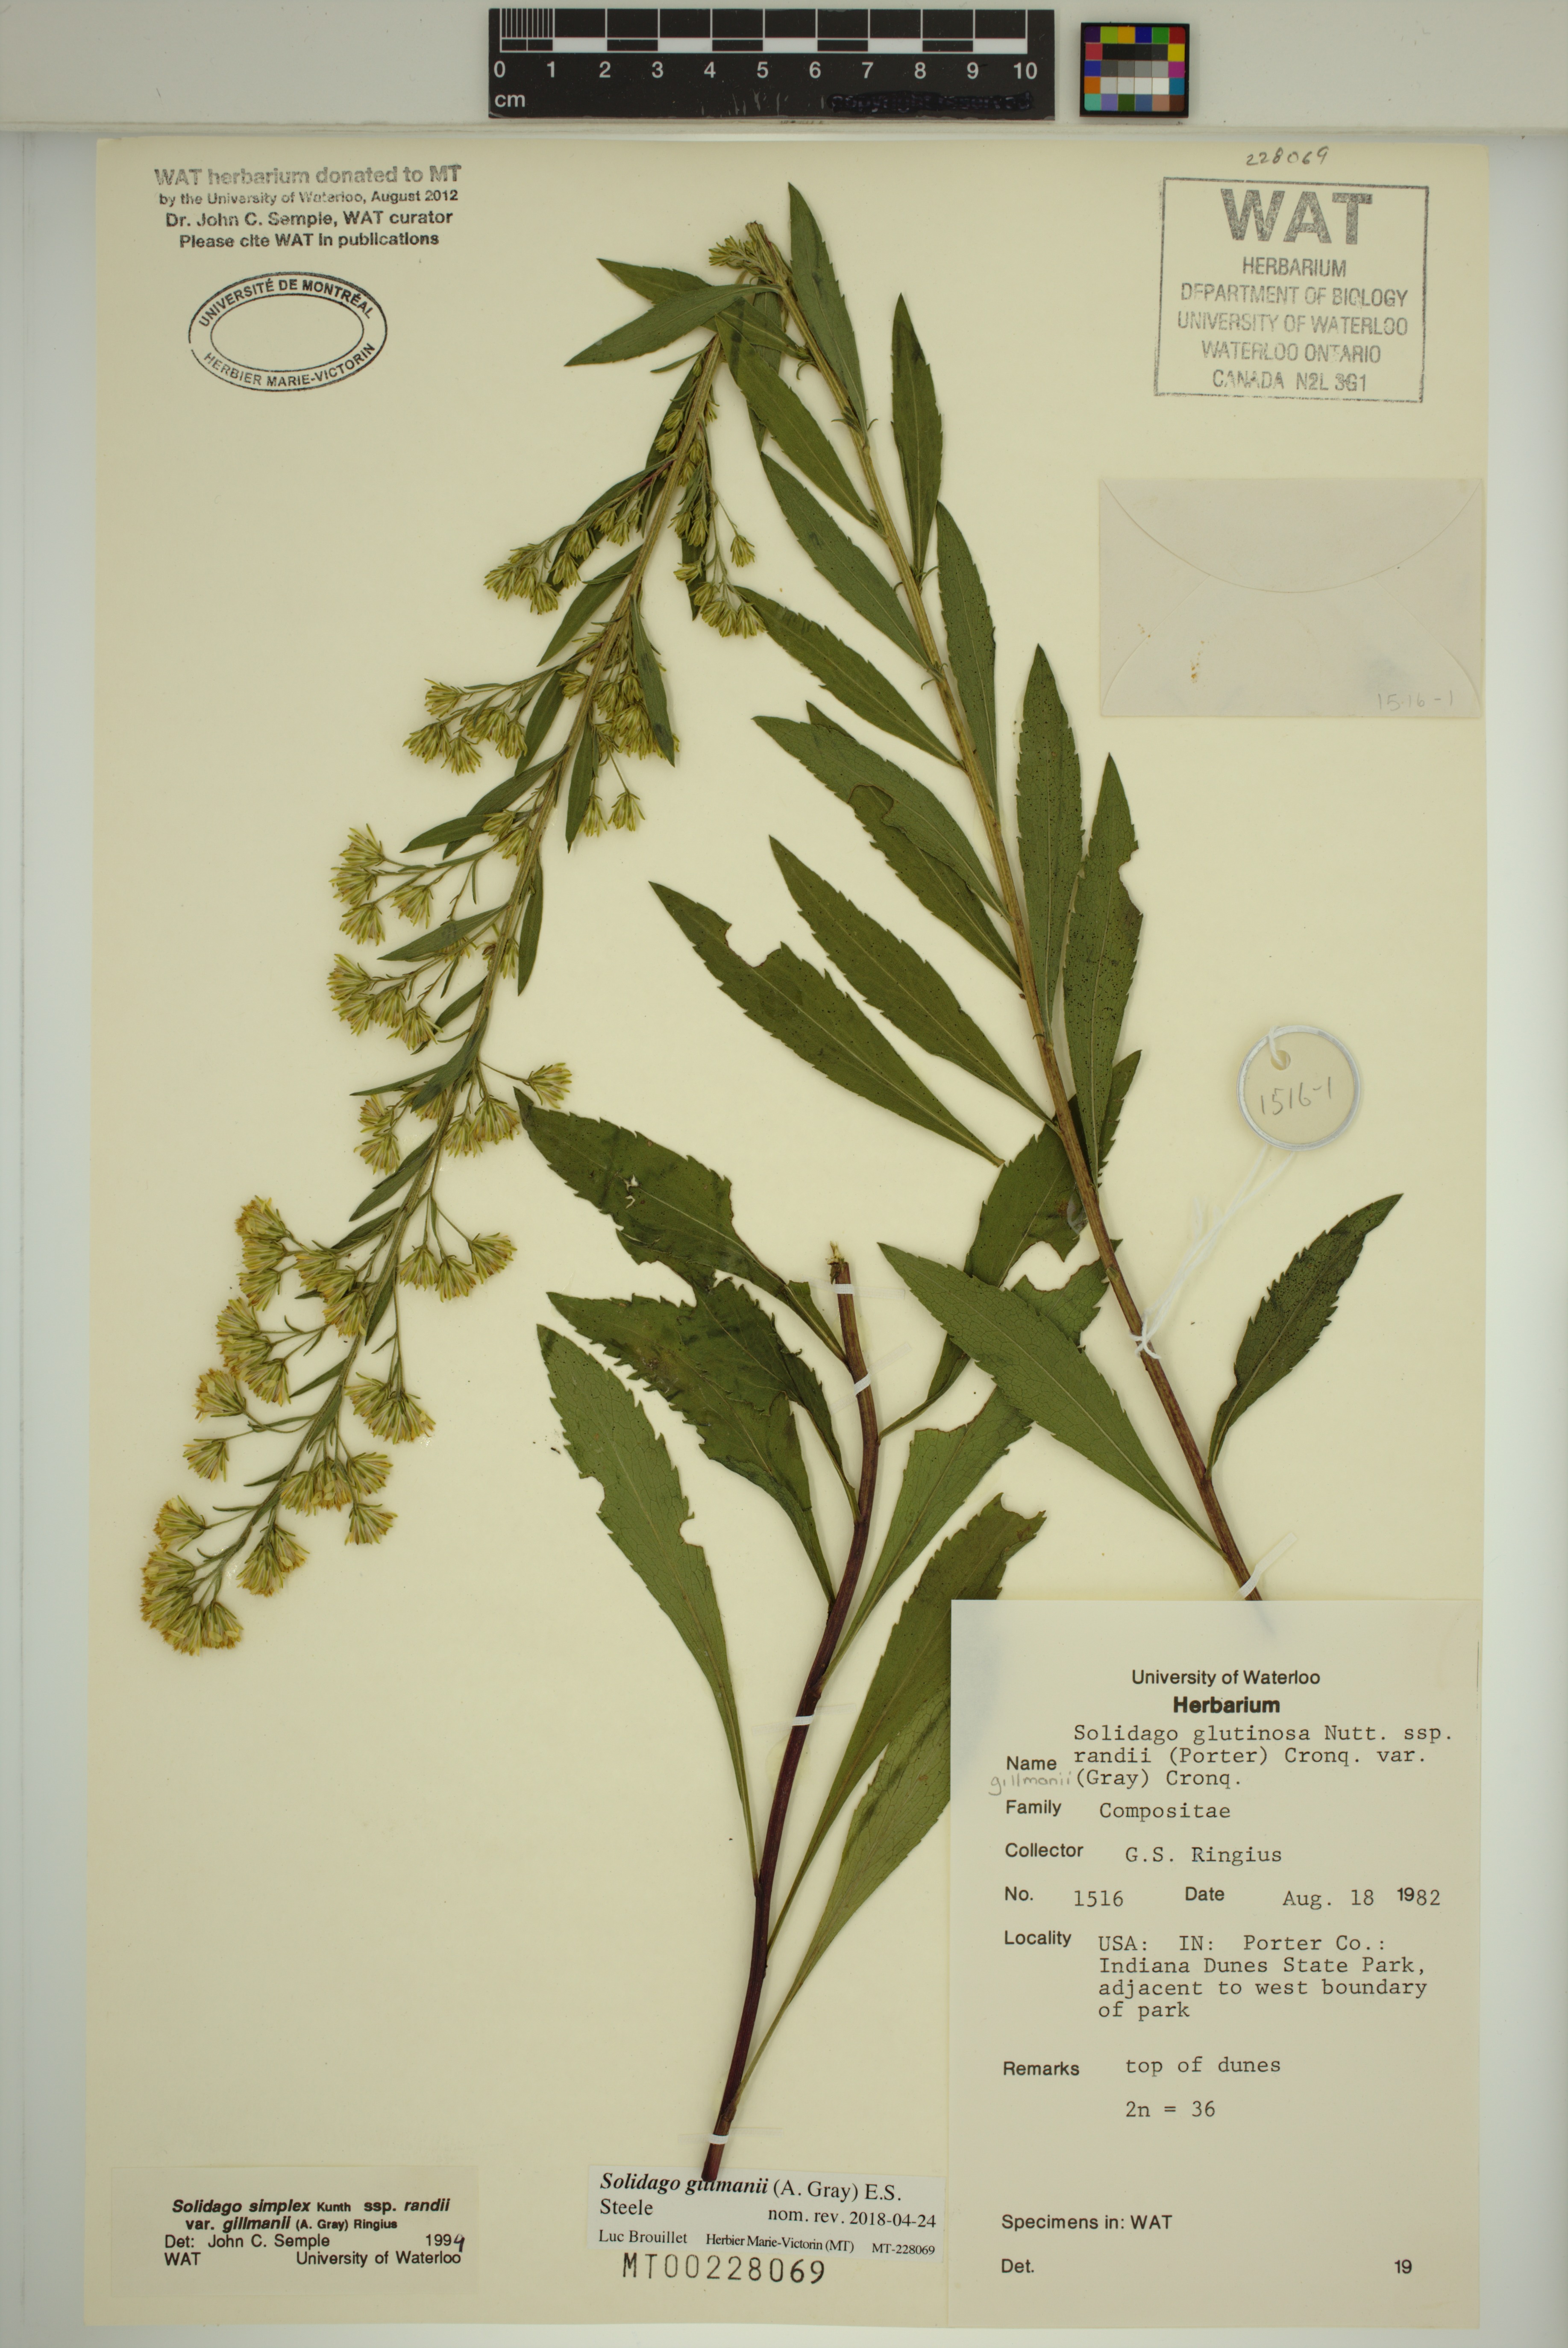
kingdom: Plantae
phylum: Tracheophyta
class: Magnoliopsida
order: Asterales
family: Asteraceae
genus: Solidago
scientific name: Solidago gillmanii
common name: Gillman's goldenrod
